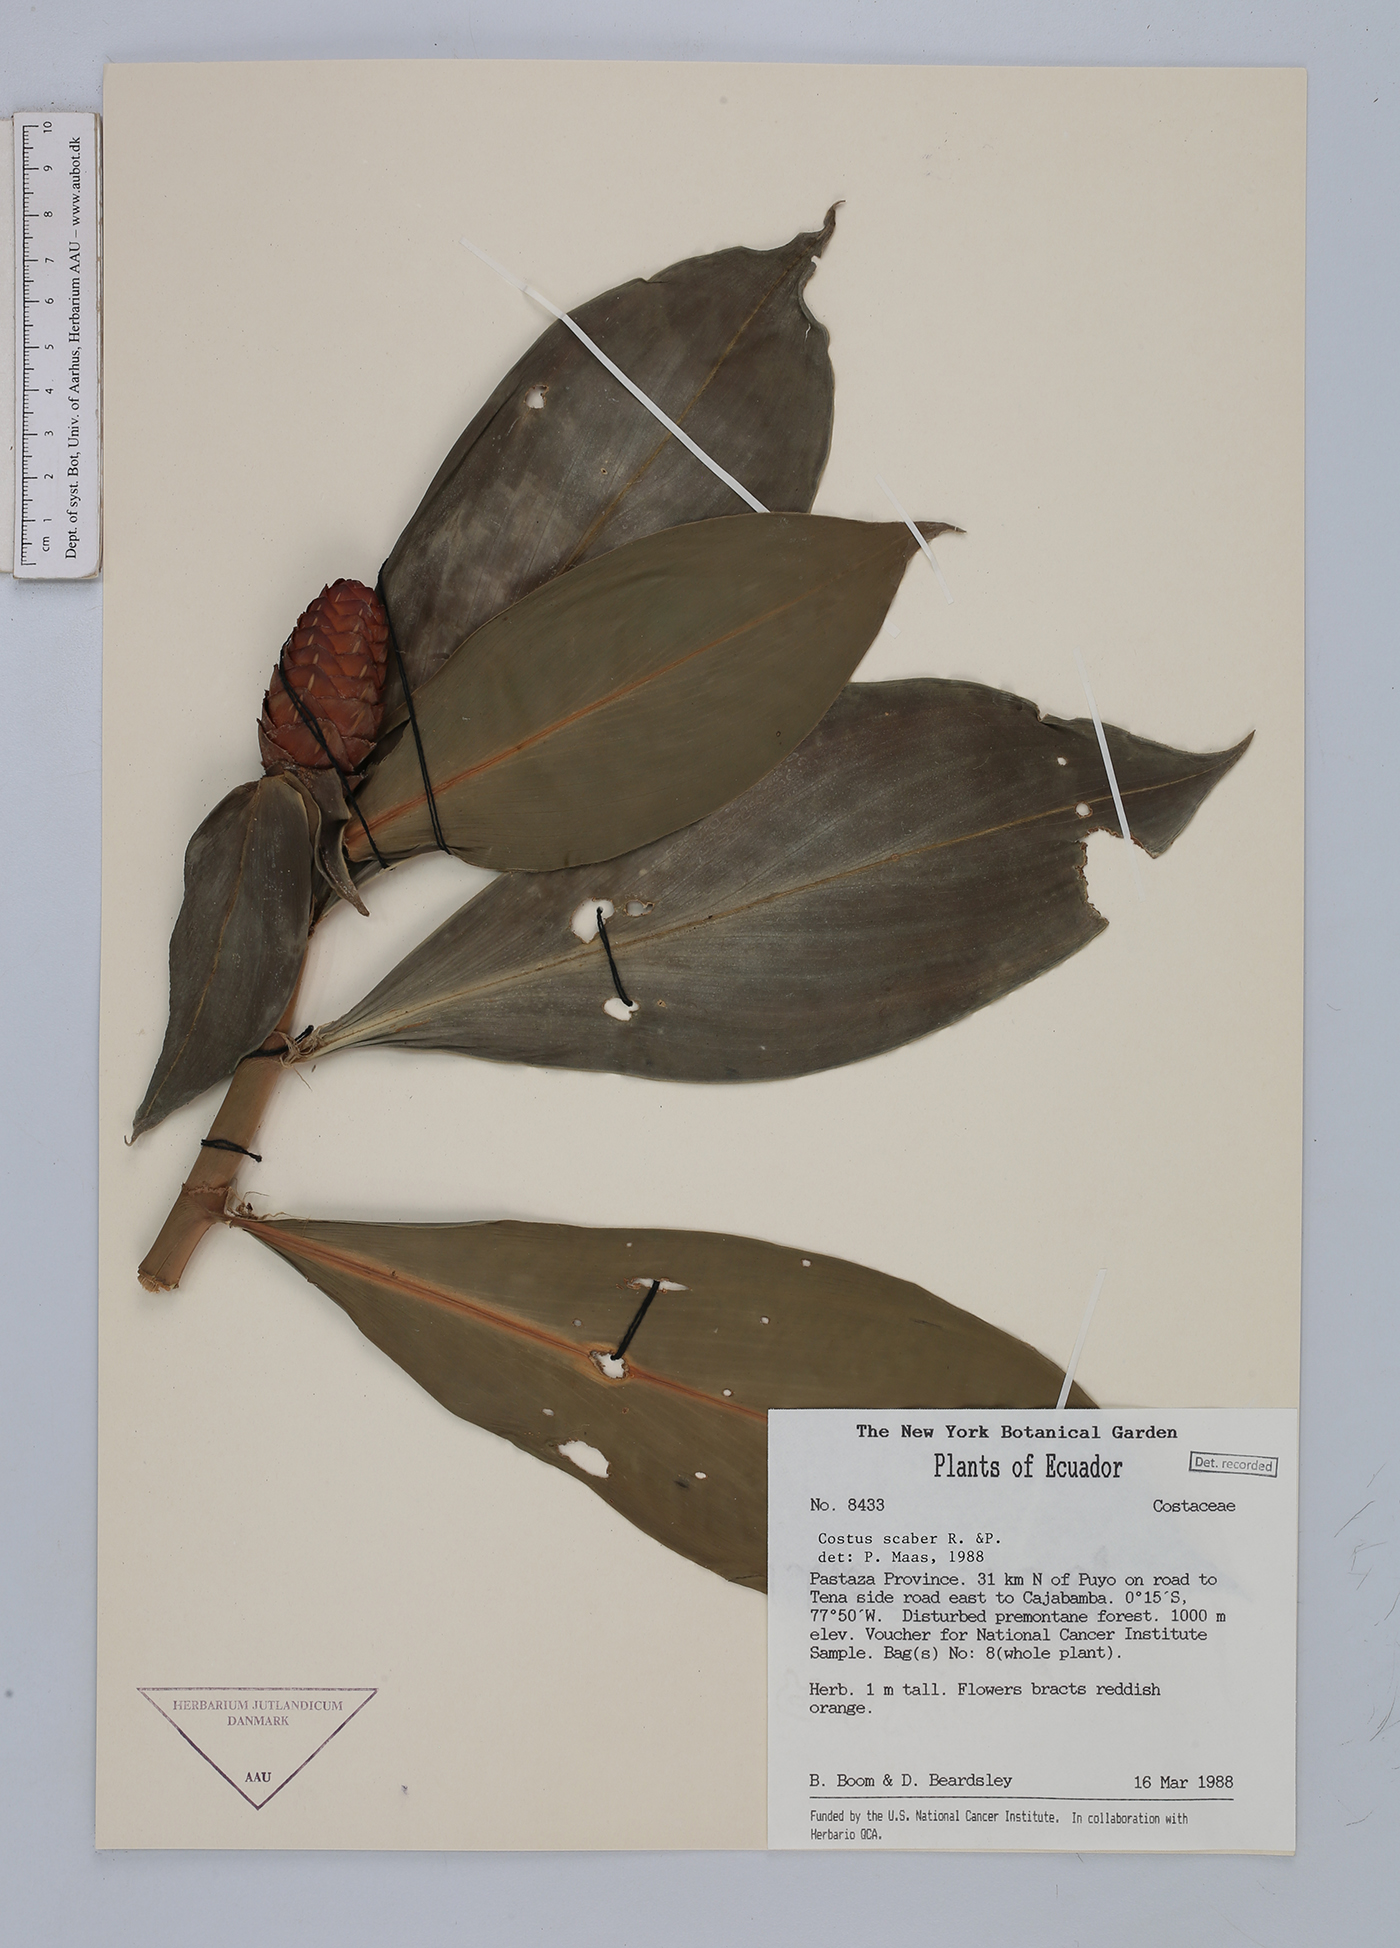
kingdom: Plantae
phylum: Tracheophyta
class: Liliopsida
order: Zingiberales
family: Costaceae
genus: Costus
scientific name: Costus scaber
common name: Spiral head ginger
